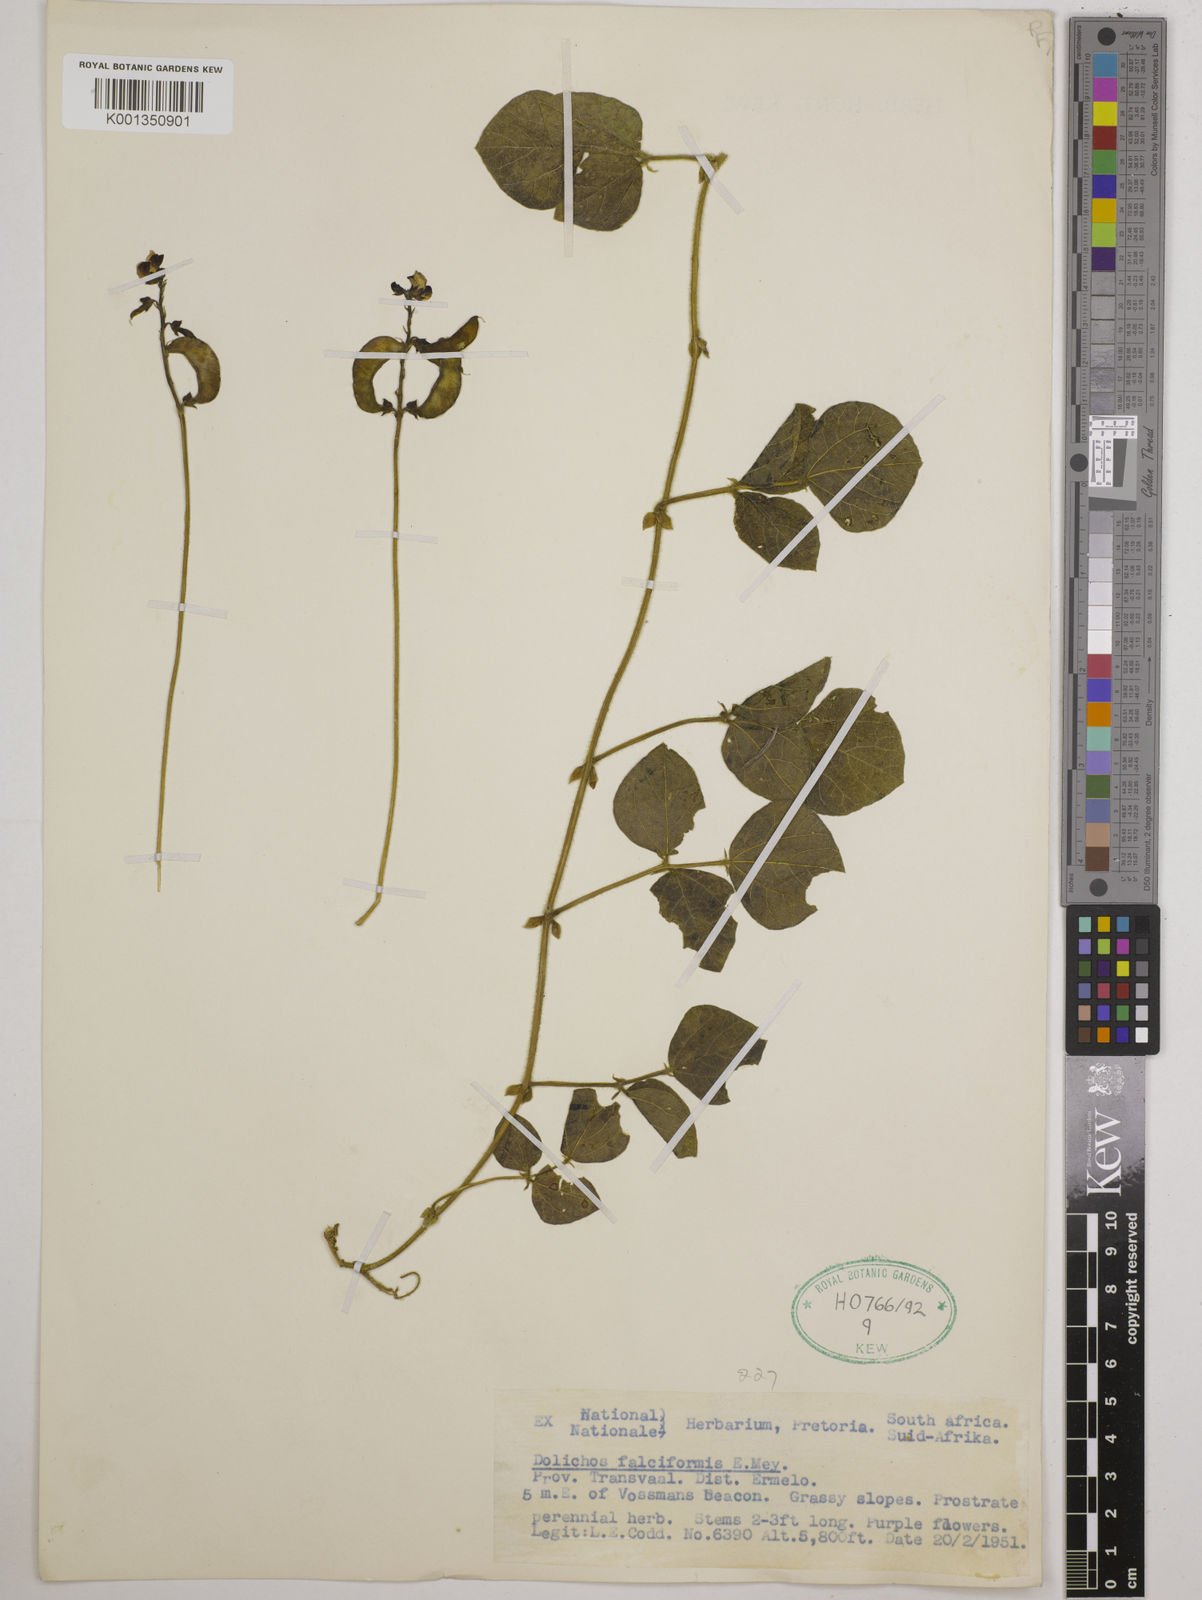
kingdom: Plantae
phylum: Tracheophyta
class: Magnoliopsida
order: Fabales
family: Fabaceae
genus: Dolichos
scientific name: Dolichos falciformis
